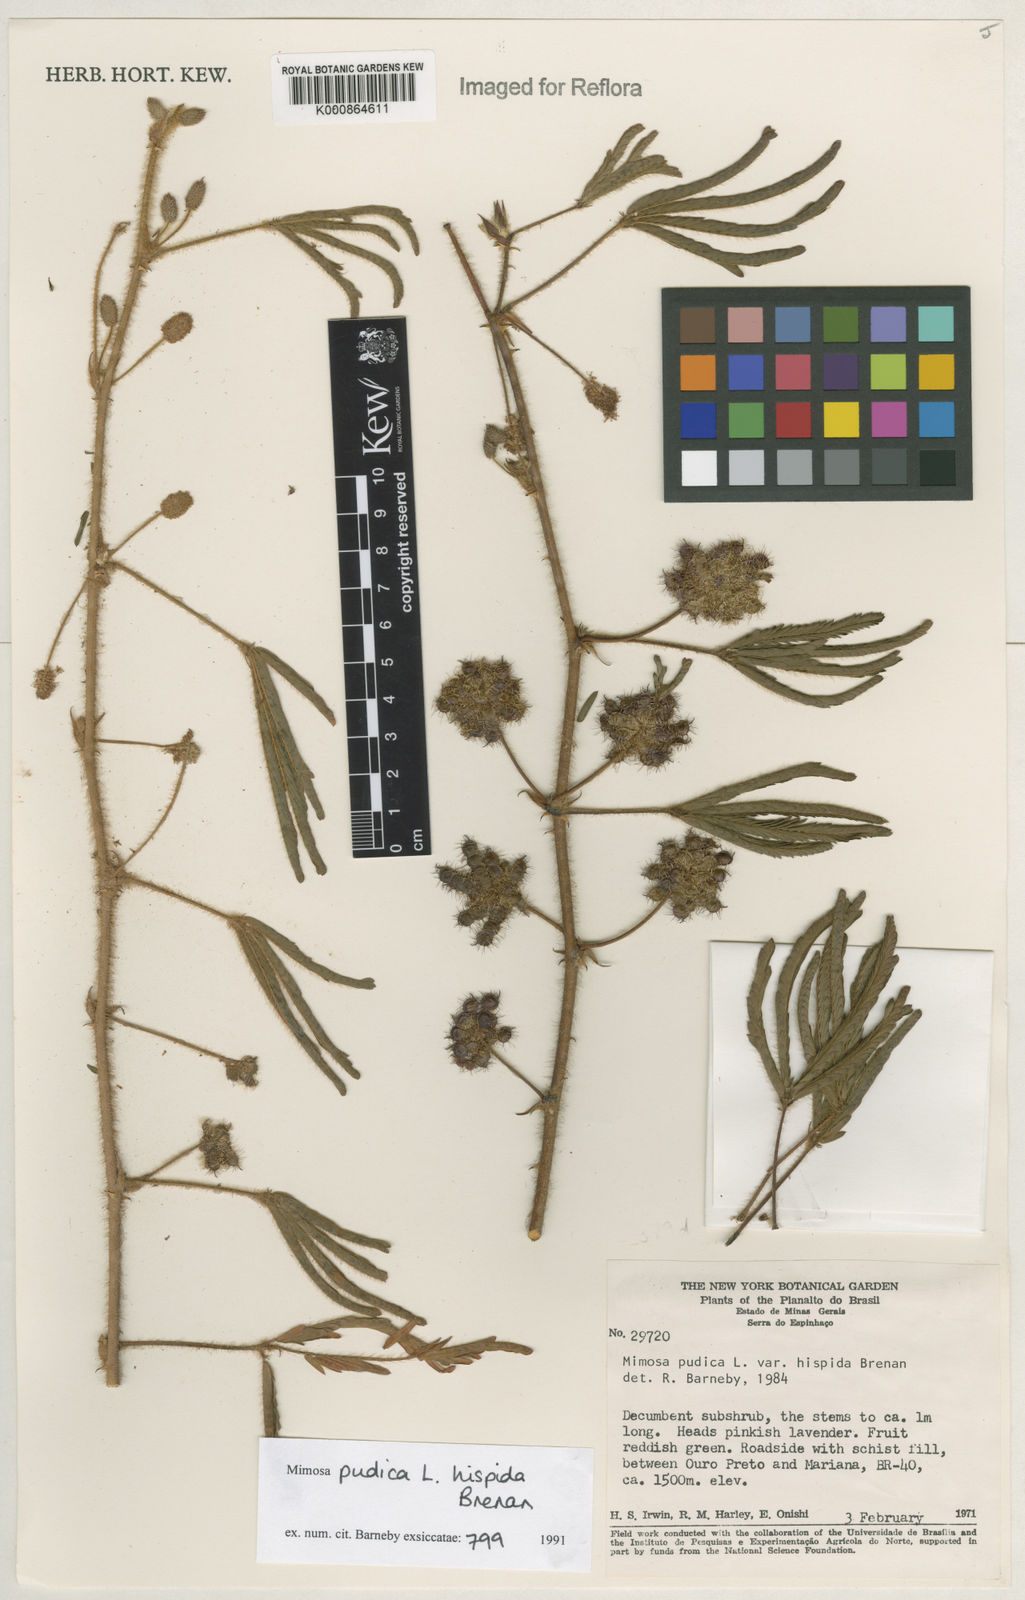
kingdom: Plantae
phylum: Tracheophyta
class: Magnoliopsida
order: Fabales
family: Fabaceae
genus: Mimosa
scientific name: Mimosa pudica
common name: Sensitive plant
